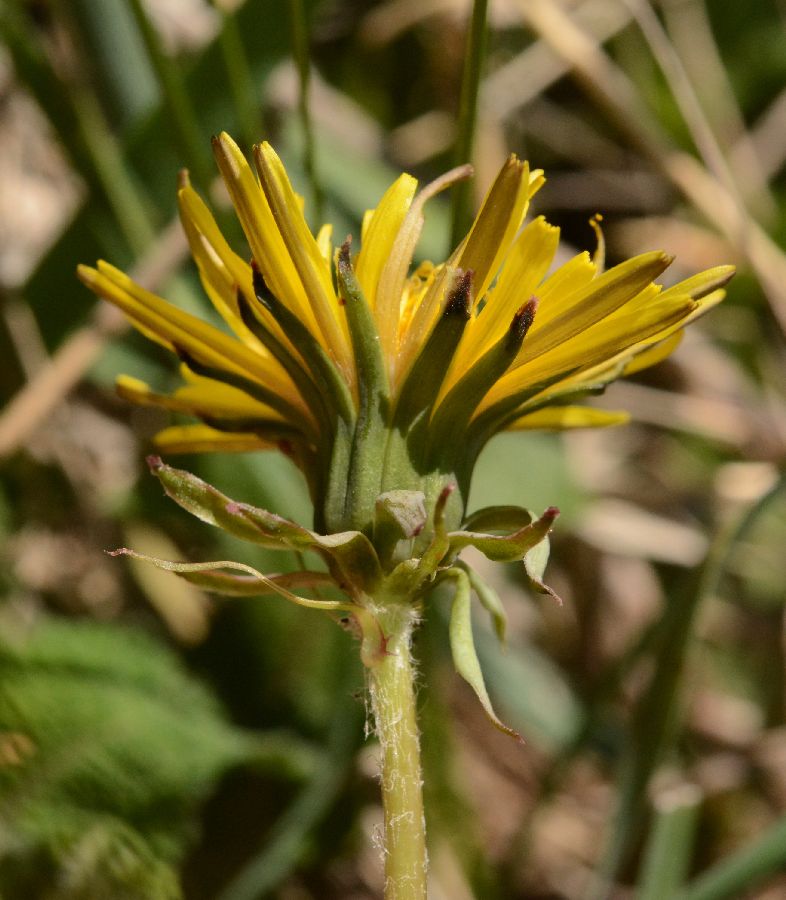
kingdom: Plantae
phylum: Tracheophyta
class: Magnoliopsida
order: Asterales
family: Asteraceae
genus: Taraxacum
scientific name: Taraxacum erythrospermum
